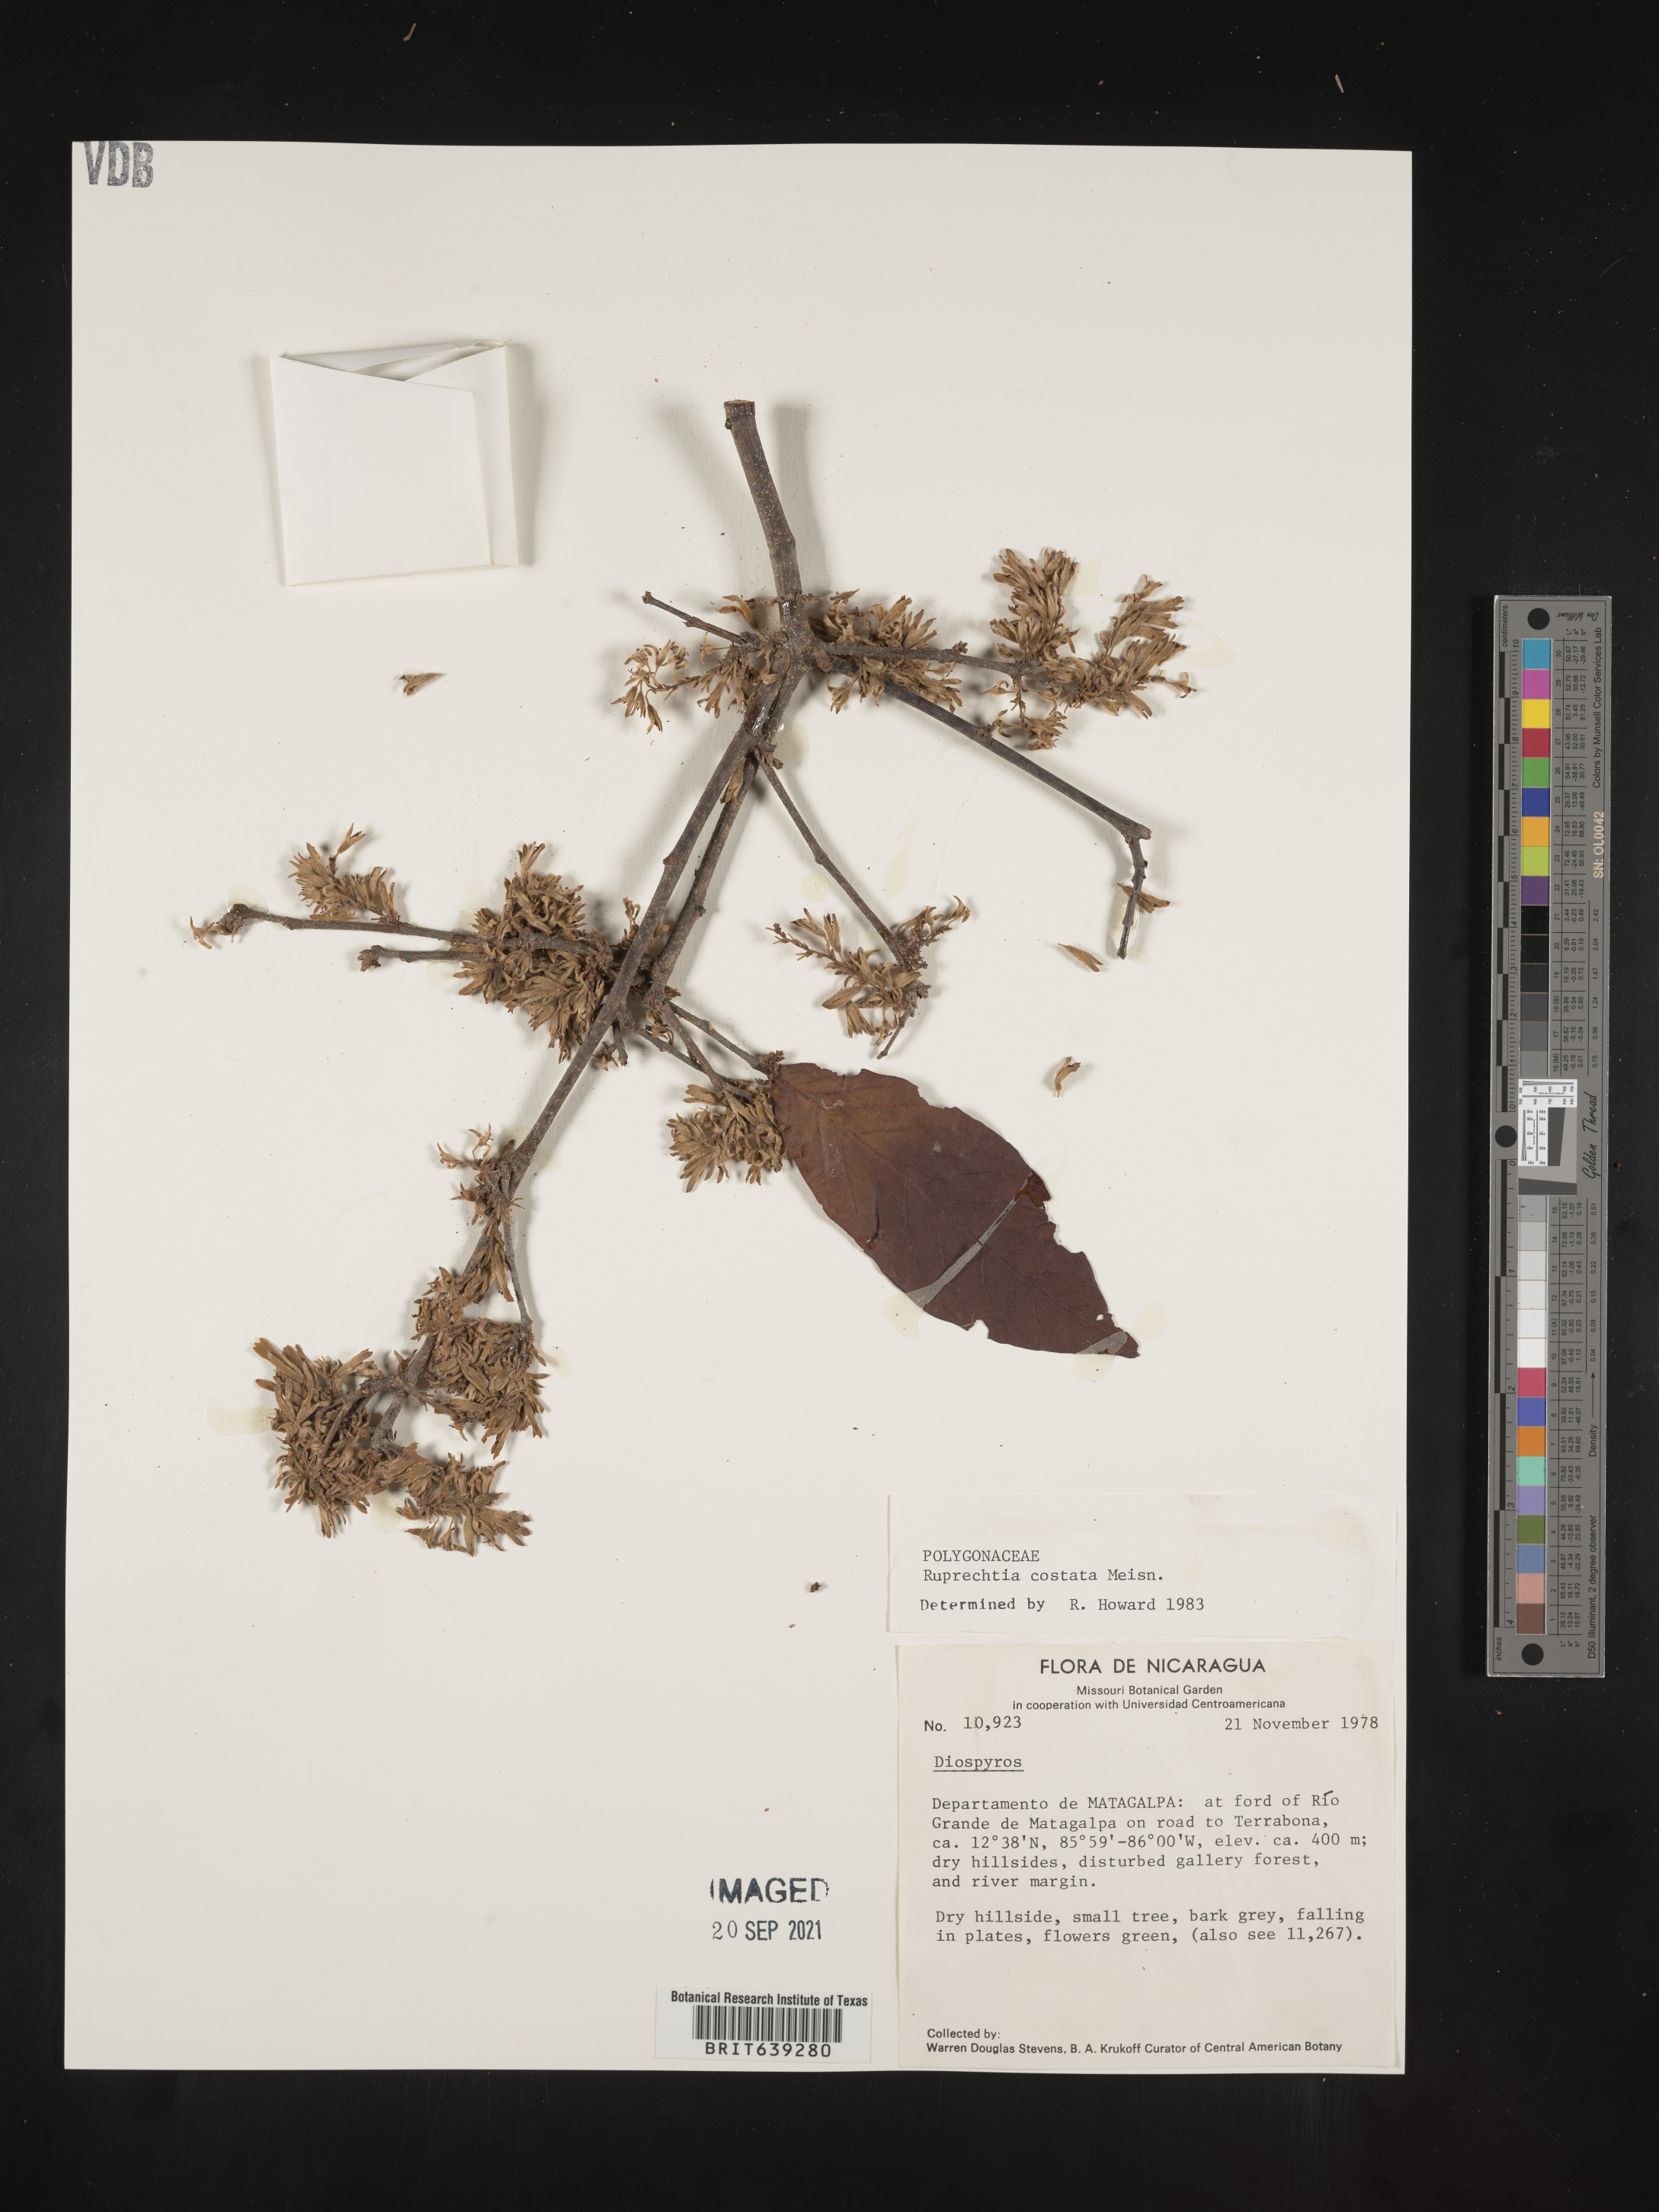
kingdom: Plantae
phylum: Tracheophyta
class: Magnoliopsida
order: Caryophyllales
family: Polygonaceae
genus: Ruprechtia
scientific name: Ruprechtia
